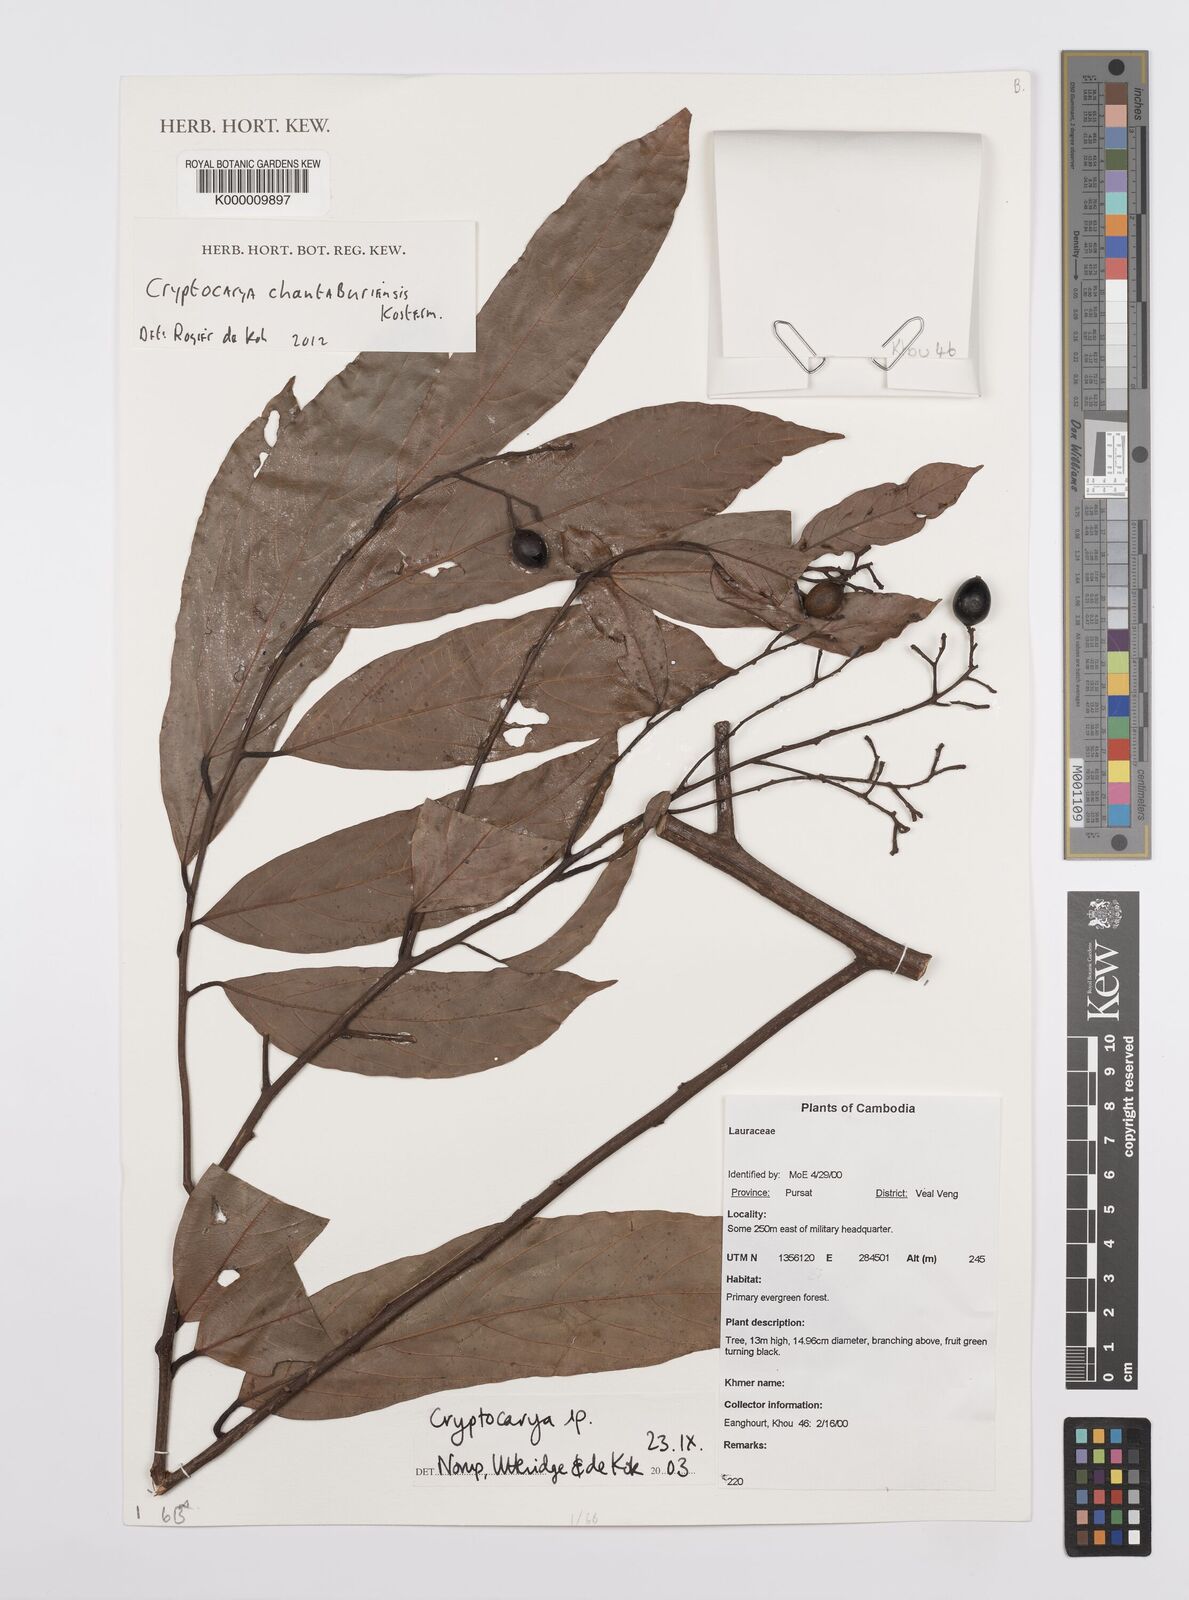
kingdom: Plantae
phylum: Tracheophyta
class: Magnoliopsida
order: Laurales
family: Lauraceae
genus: Cryptocarya
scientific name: Cryptocarya chanthaburiensis
